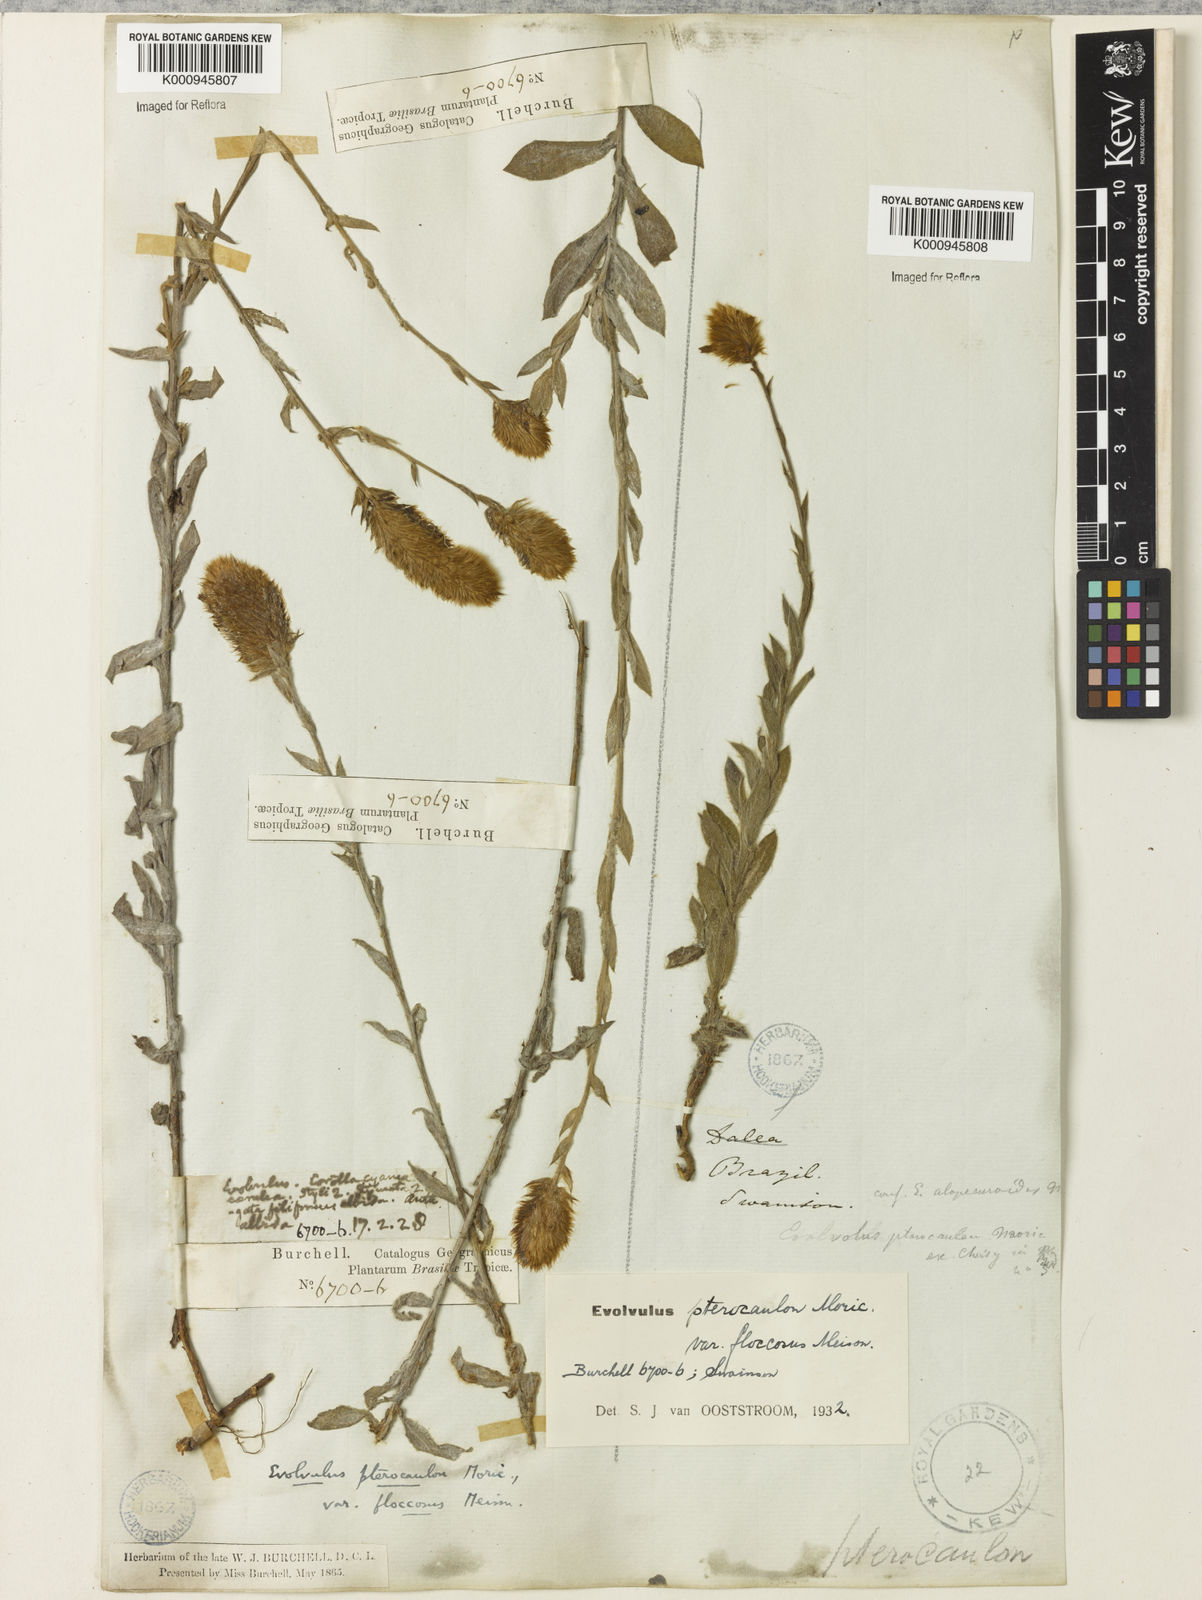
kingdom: Plantae
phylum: Tracheophyta
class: Magnoliopsida
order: Solanales
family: Convolvulaceae
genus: Evolvulus
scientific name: Evolvulus pterocaulon
